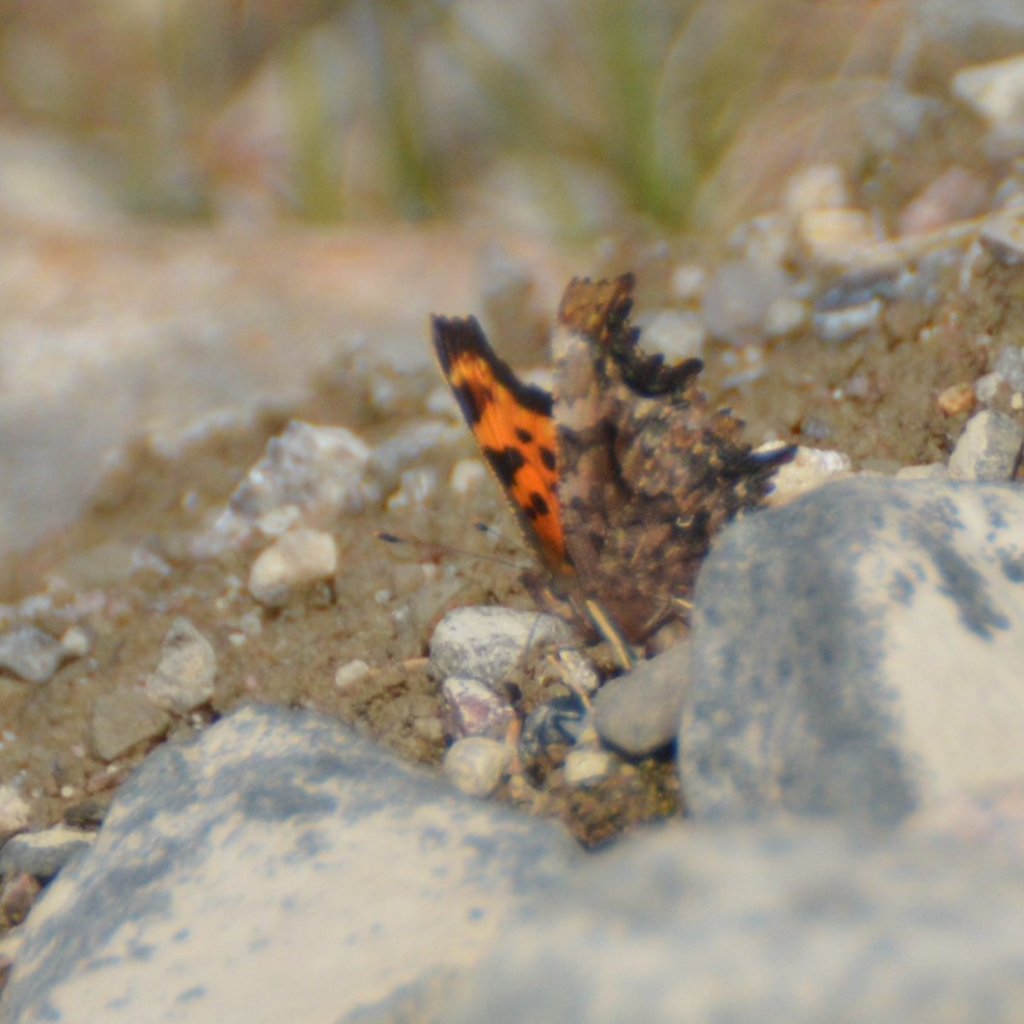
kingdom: Animalia
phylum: Arthropoda
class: Insecta
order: Lepidoptera
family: Nymphalidae
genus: Polygonia
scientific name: Polygonia faunus
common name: Green Comma
